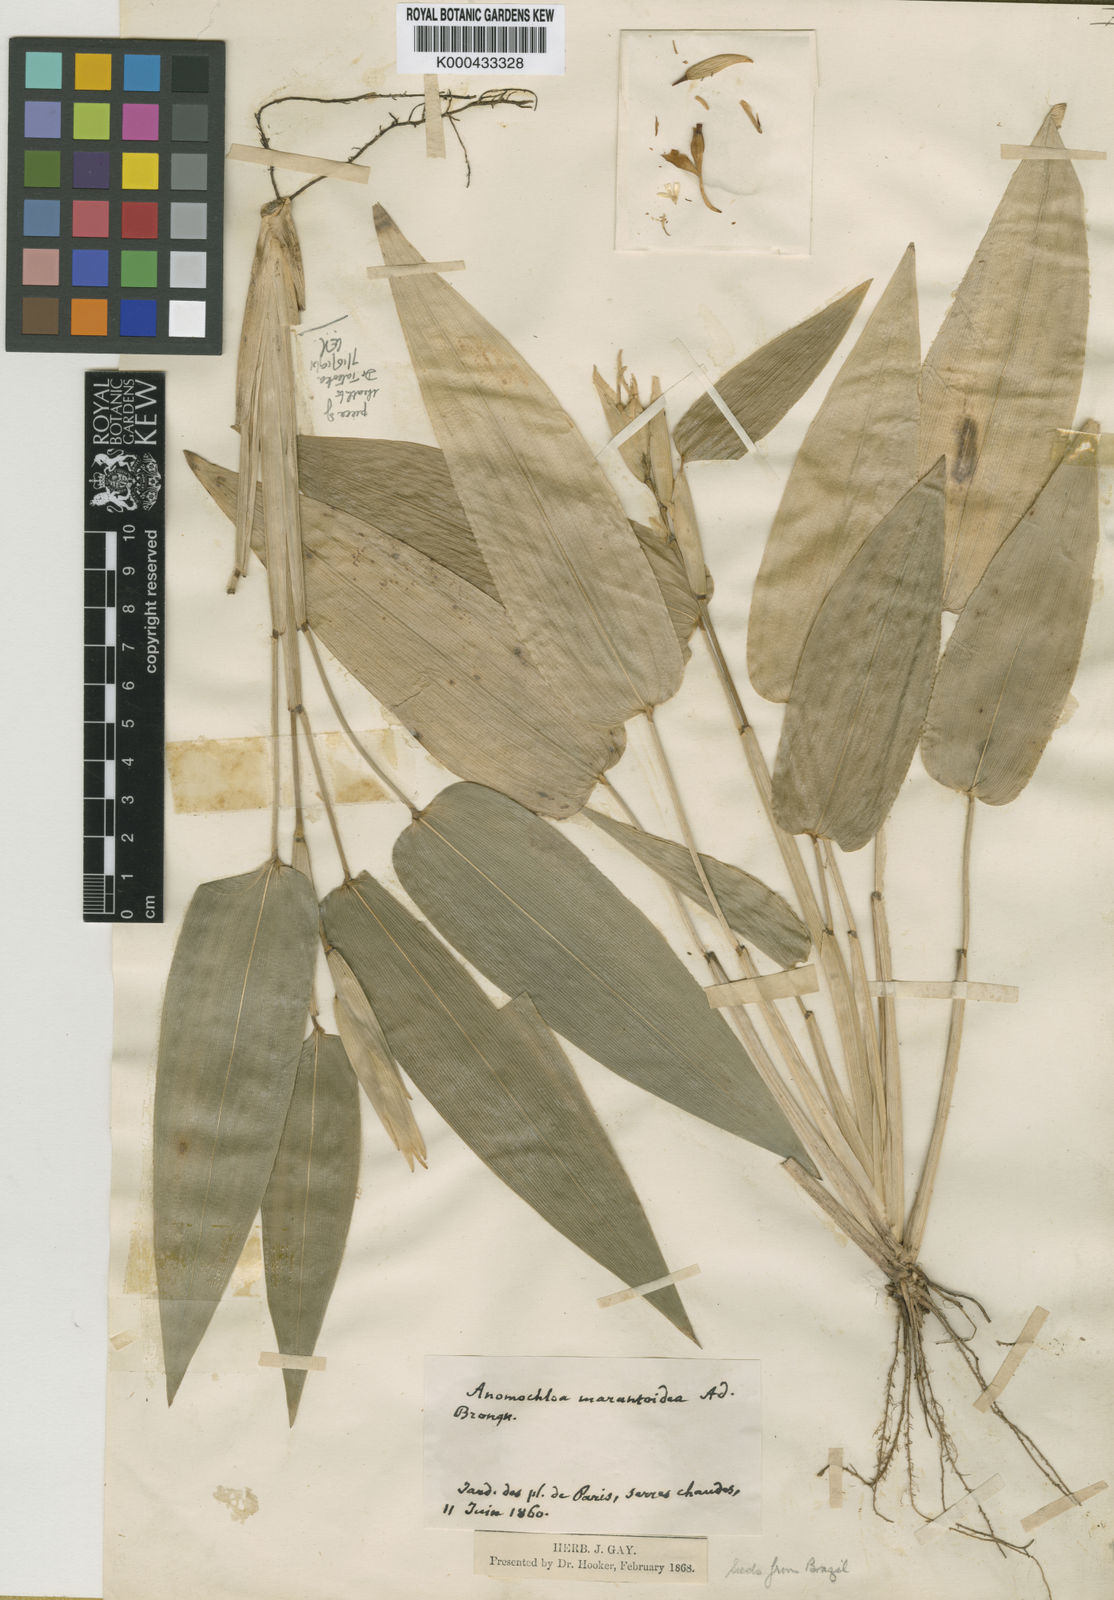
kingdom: Plantae
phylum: Tracheophyta
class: Liliopsida
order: Poales
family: Poaceae
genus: Anomochloa
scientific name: Anomochloa marantoidea
